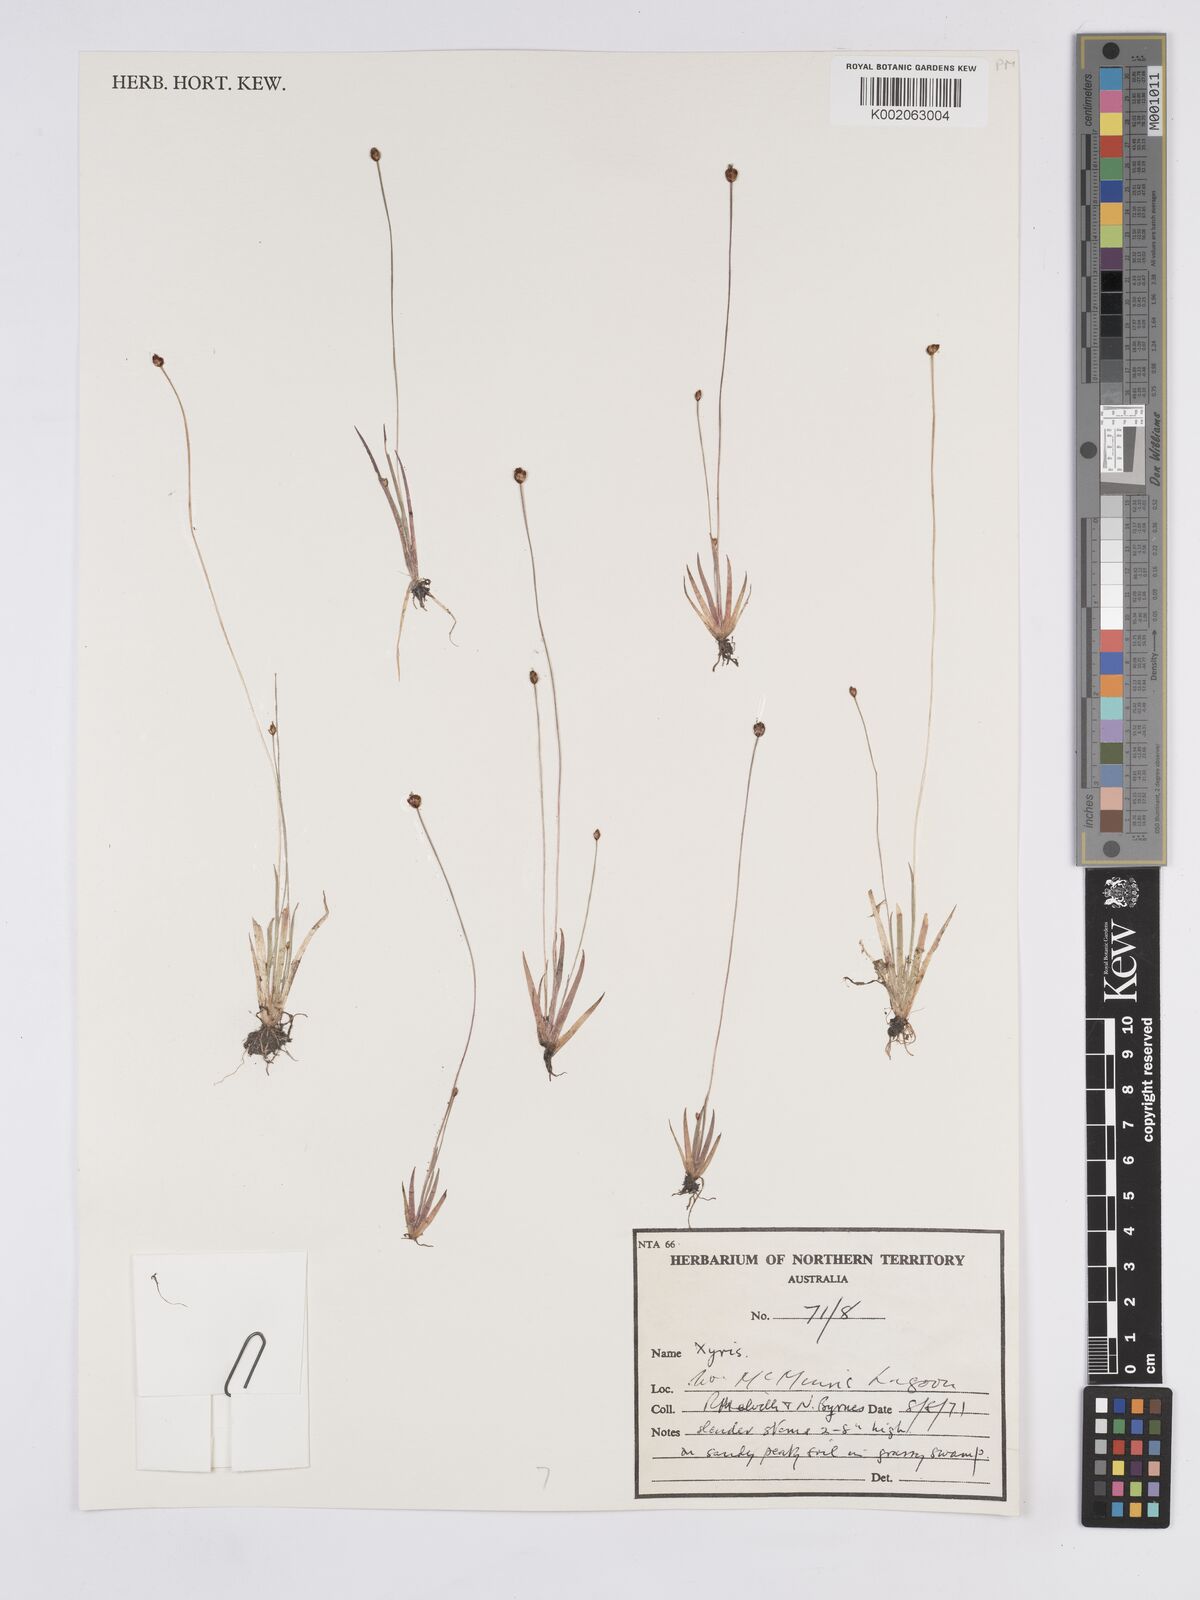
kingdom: Plantae
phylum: Tracheophyta
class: Liliopsida
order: Poales
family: Xyridaceae
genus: Xyris
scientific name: Xyris
